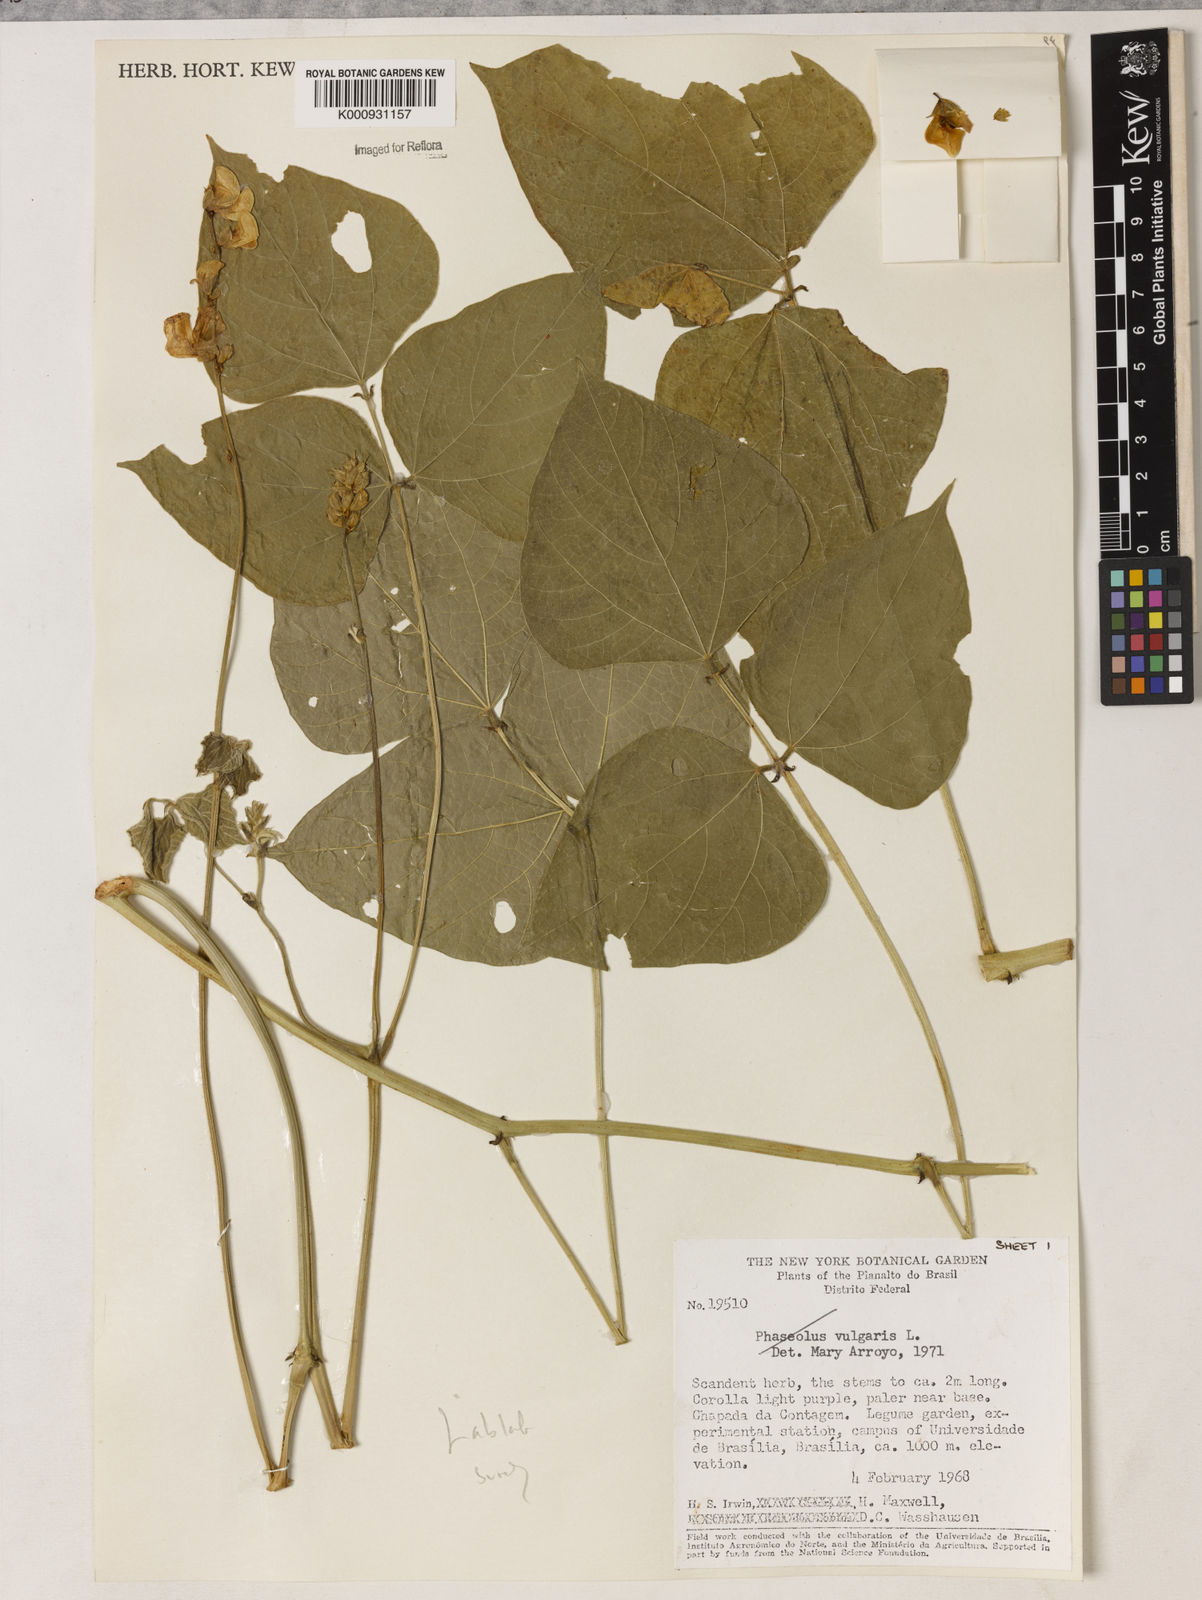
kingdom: Plantae
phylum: Tracheophyta
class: Magnoliopsida
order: Fabales
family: Fabaceae
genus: Lablab
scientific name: Lablab purpureus
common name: Lablab-bean
